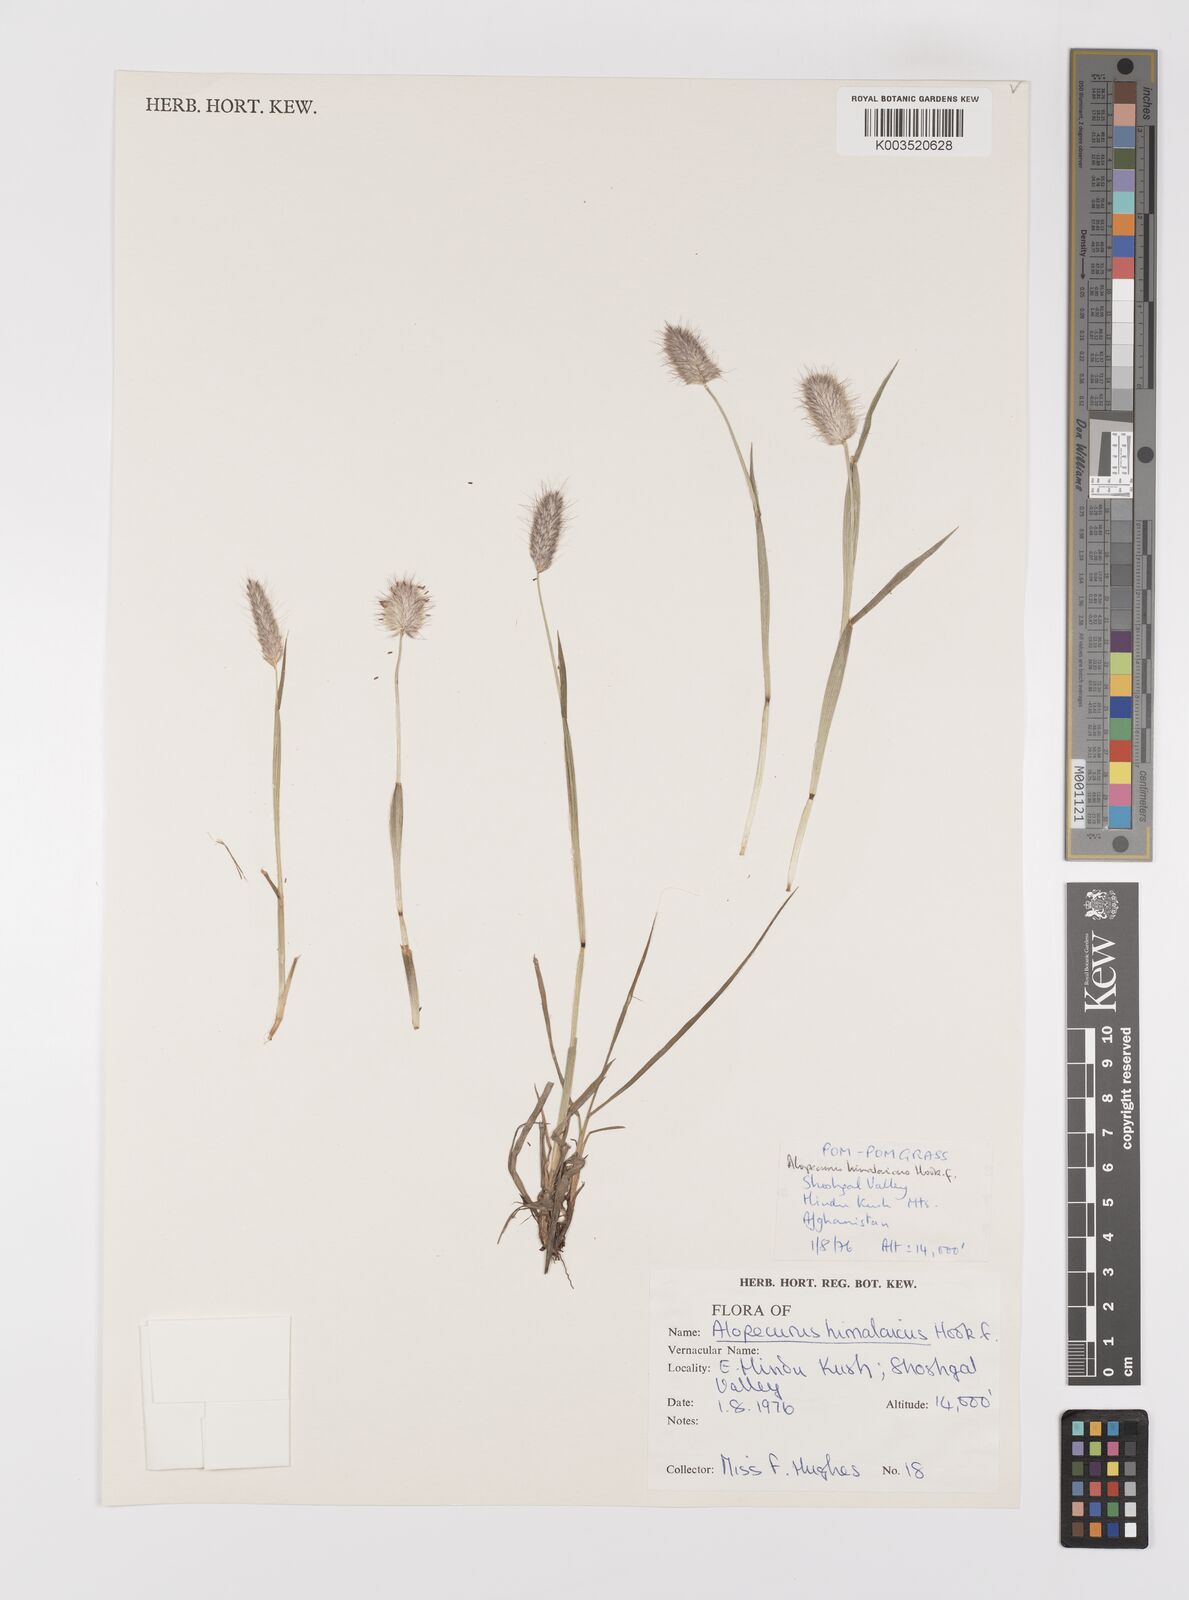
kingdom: Plantae
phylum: Tracheophyta
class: Liliopsida
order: Poales
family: Poaceae
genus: Alopecurus
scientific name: Alopecurus himalaicus
